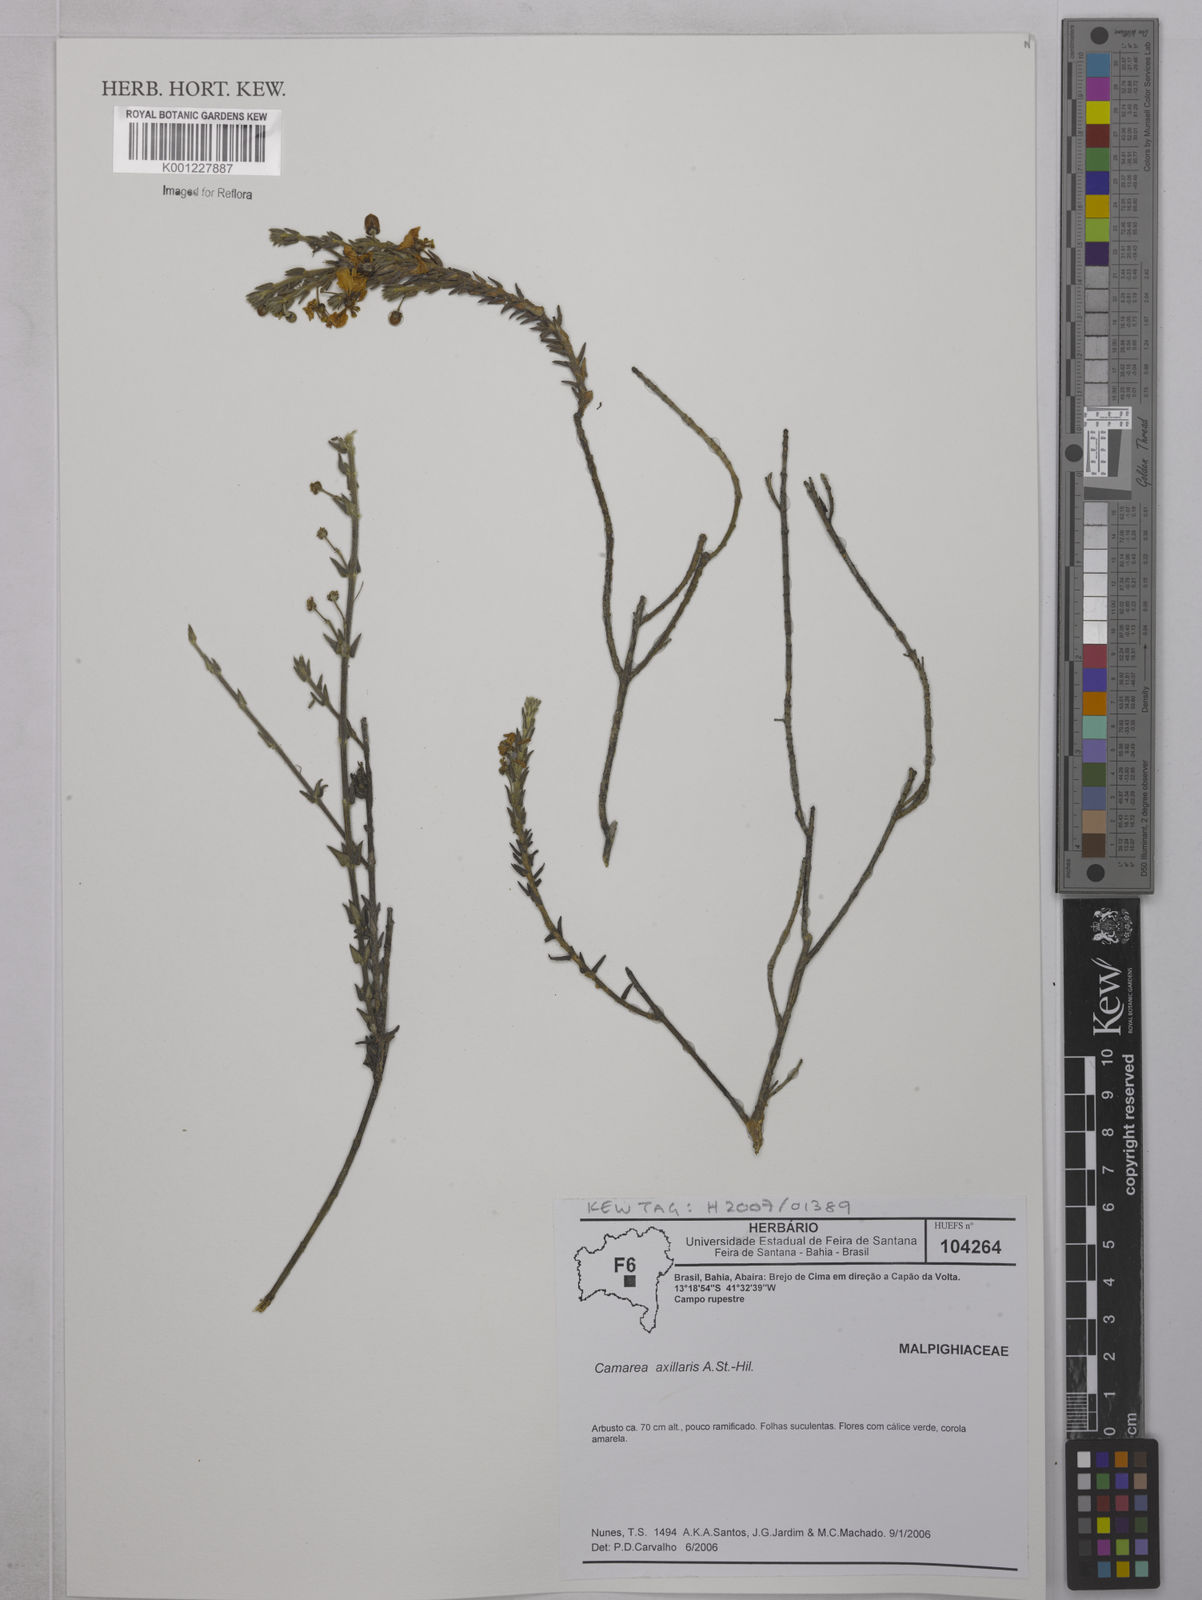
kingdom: Plantae
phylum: Tracheophyta
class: Magnoliopsida
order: Malpighiales
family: Malpighiaceae
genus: Camarea
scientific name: Camarea axillaris
